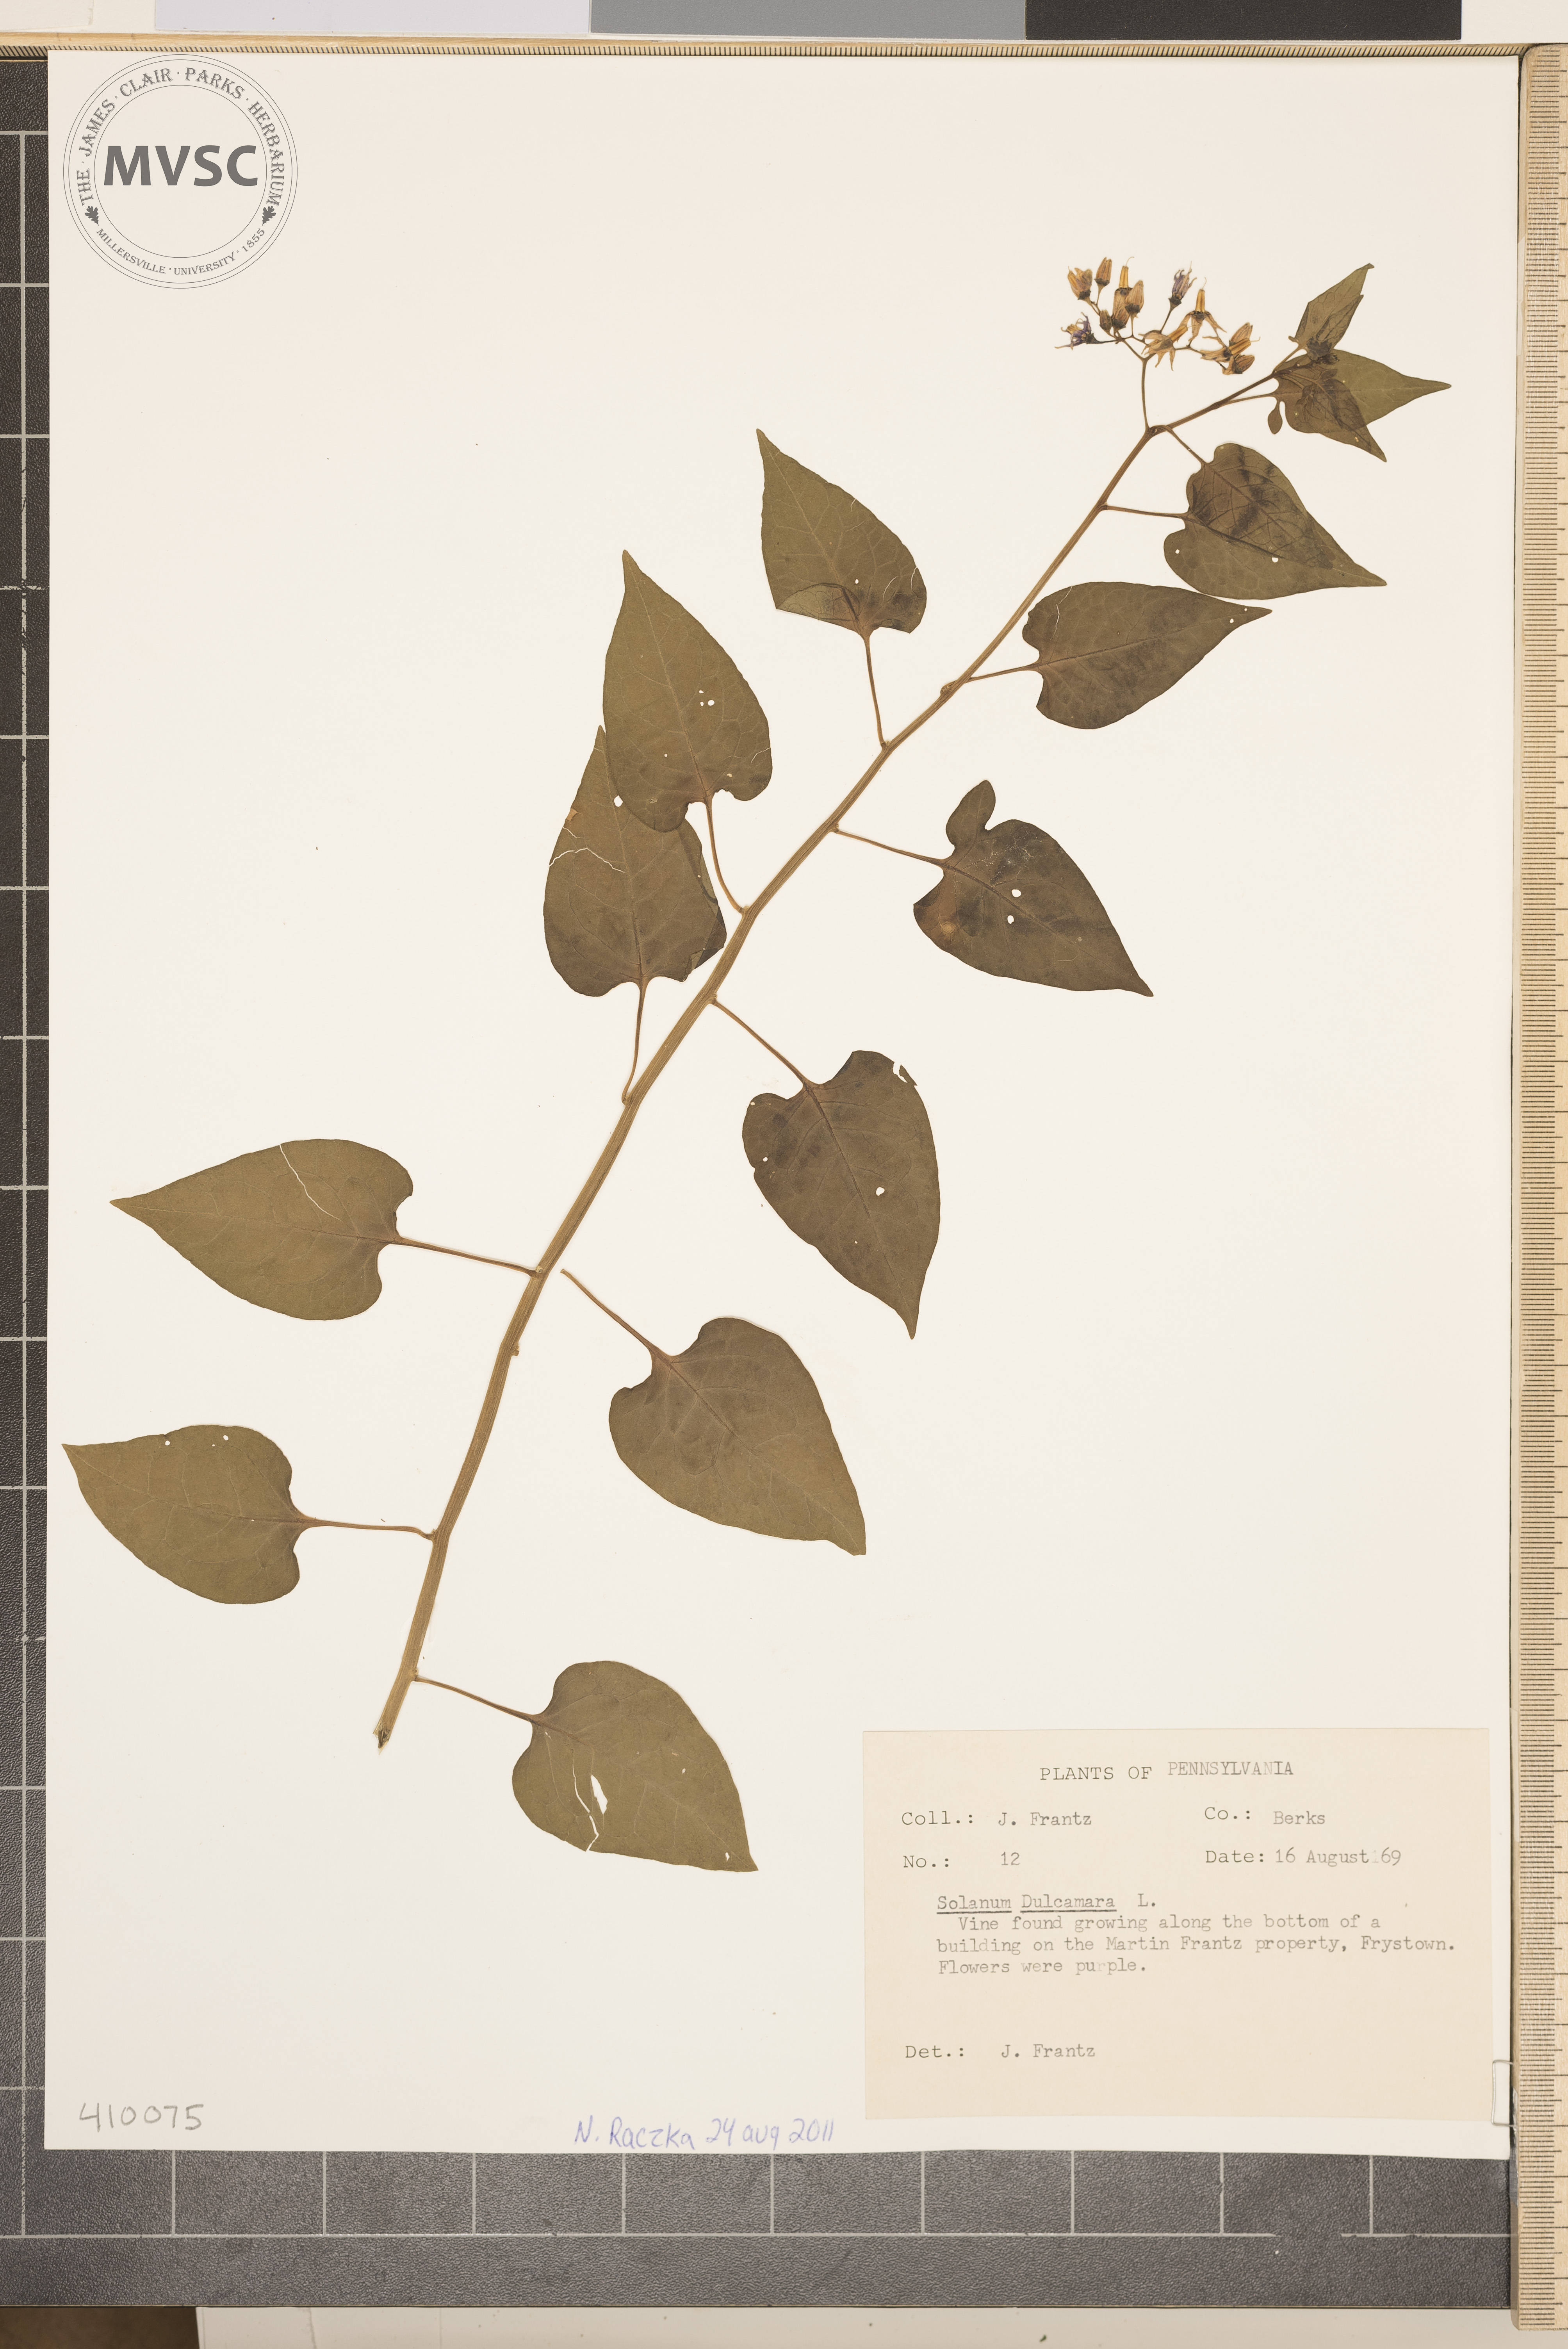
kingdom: Plantae
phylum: Tracheophyta
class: Magnoliopsida
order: Solanales
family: Solanaceae
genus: Solanum
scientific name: Solanum dulcamara
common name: Climbing nightshade
